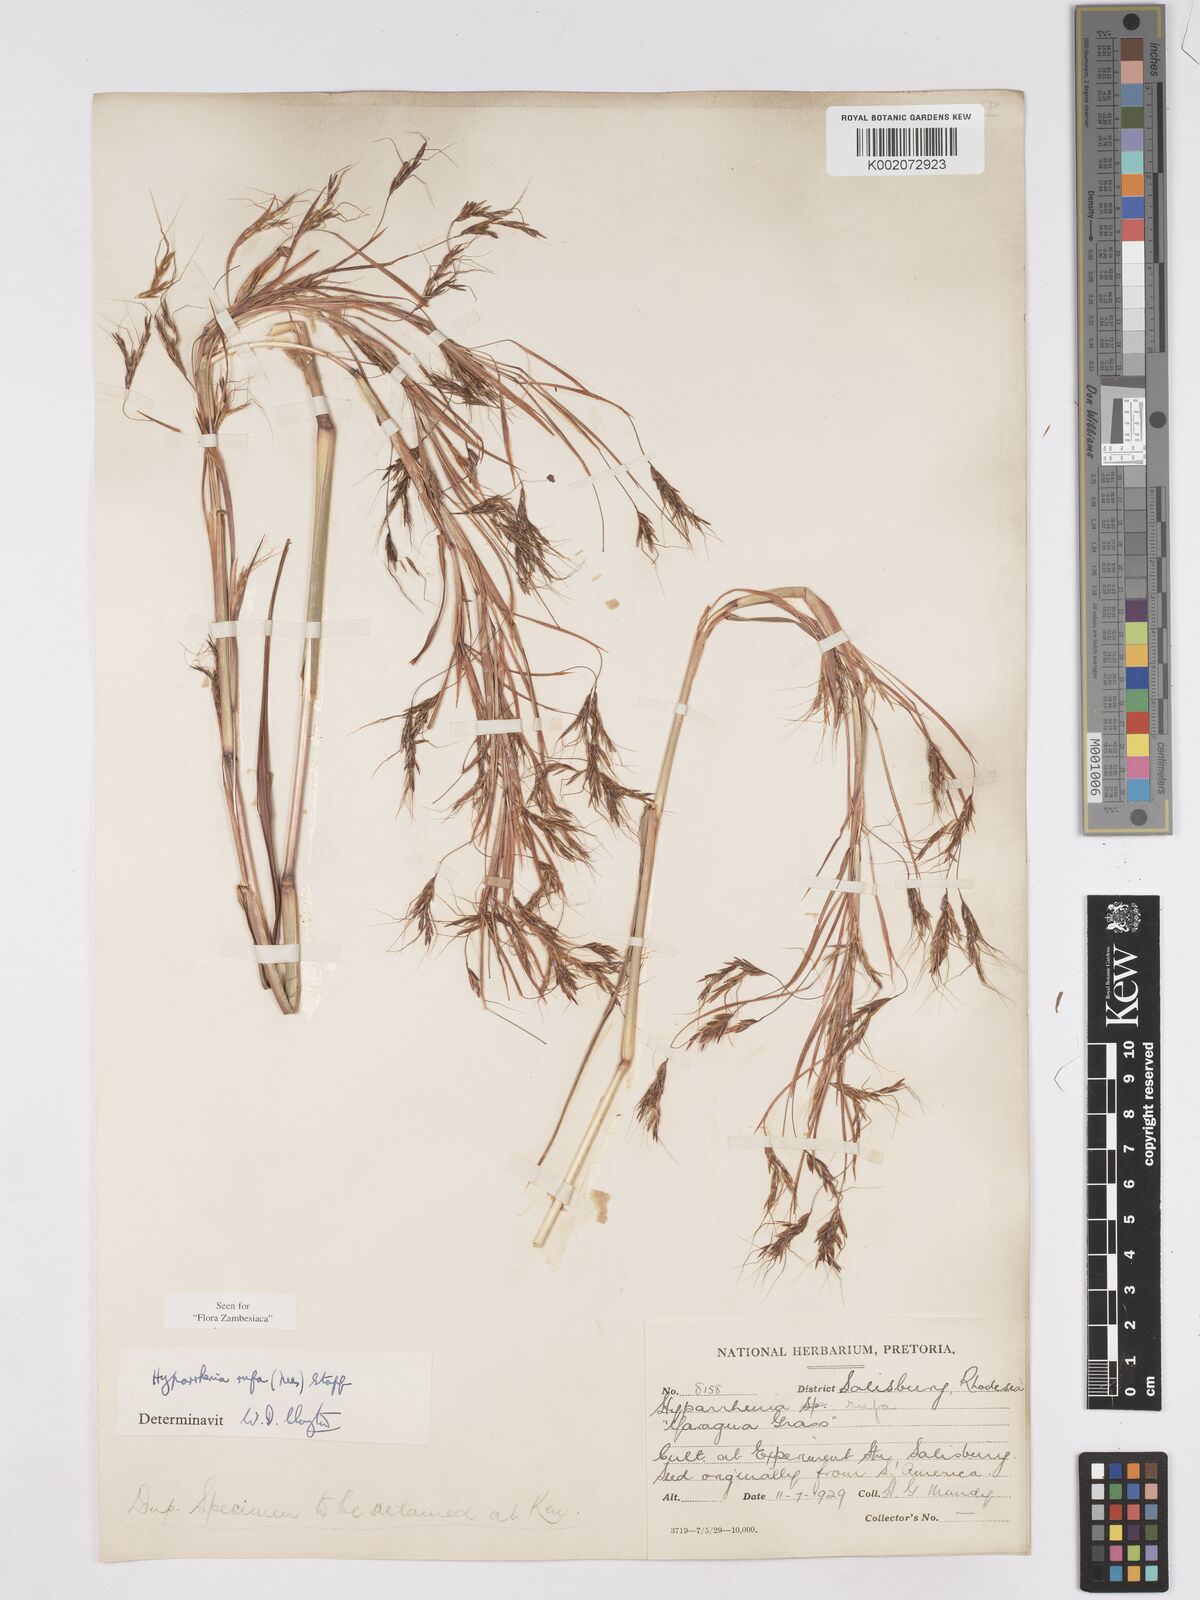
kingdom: Plantae
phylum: Tracheophyta
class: Liliopsida
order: Poales
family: Poaceae
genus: Hyparrhenia
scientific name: Hyparrhenia rufa
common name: Jaraguagrass
